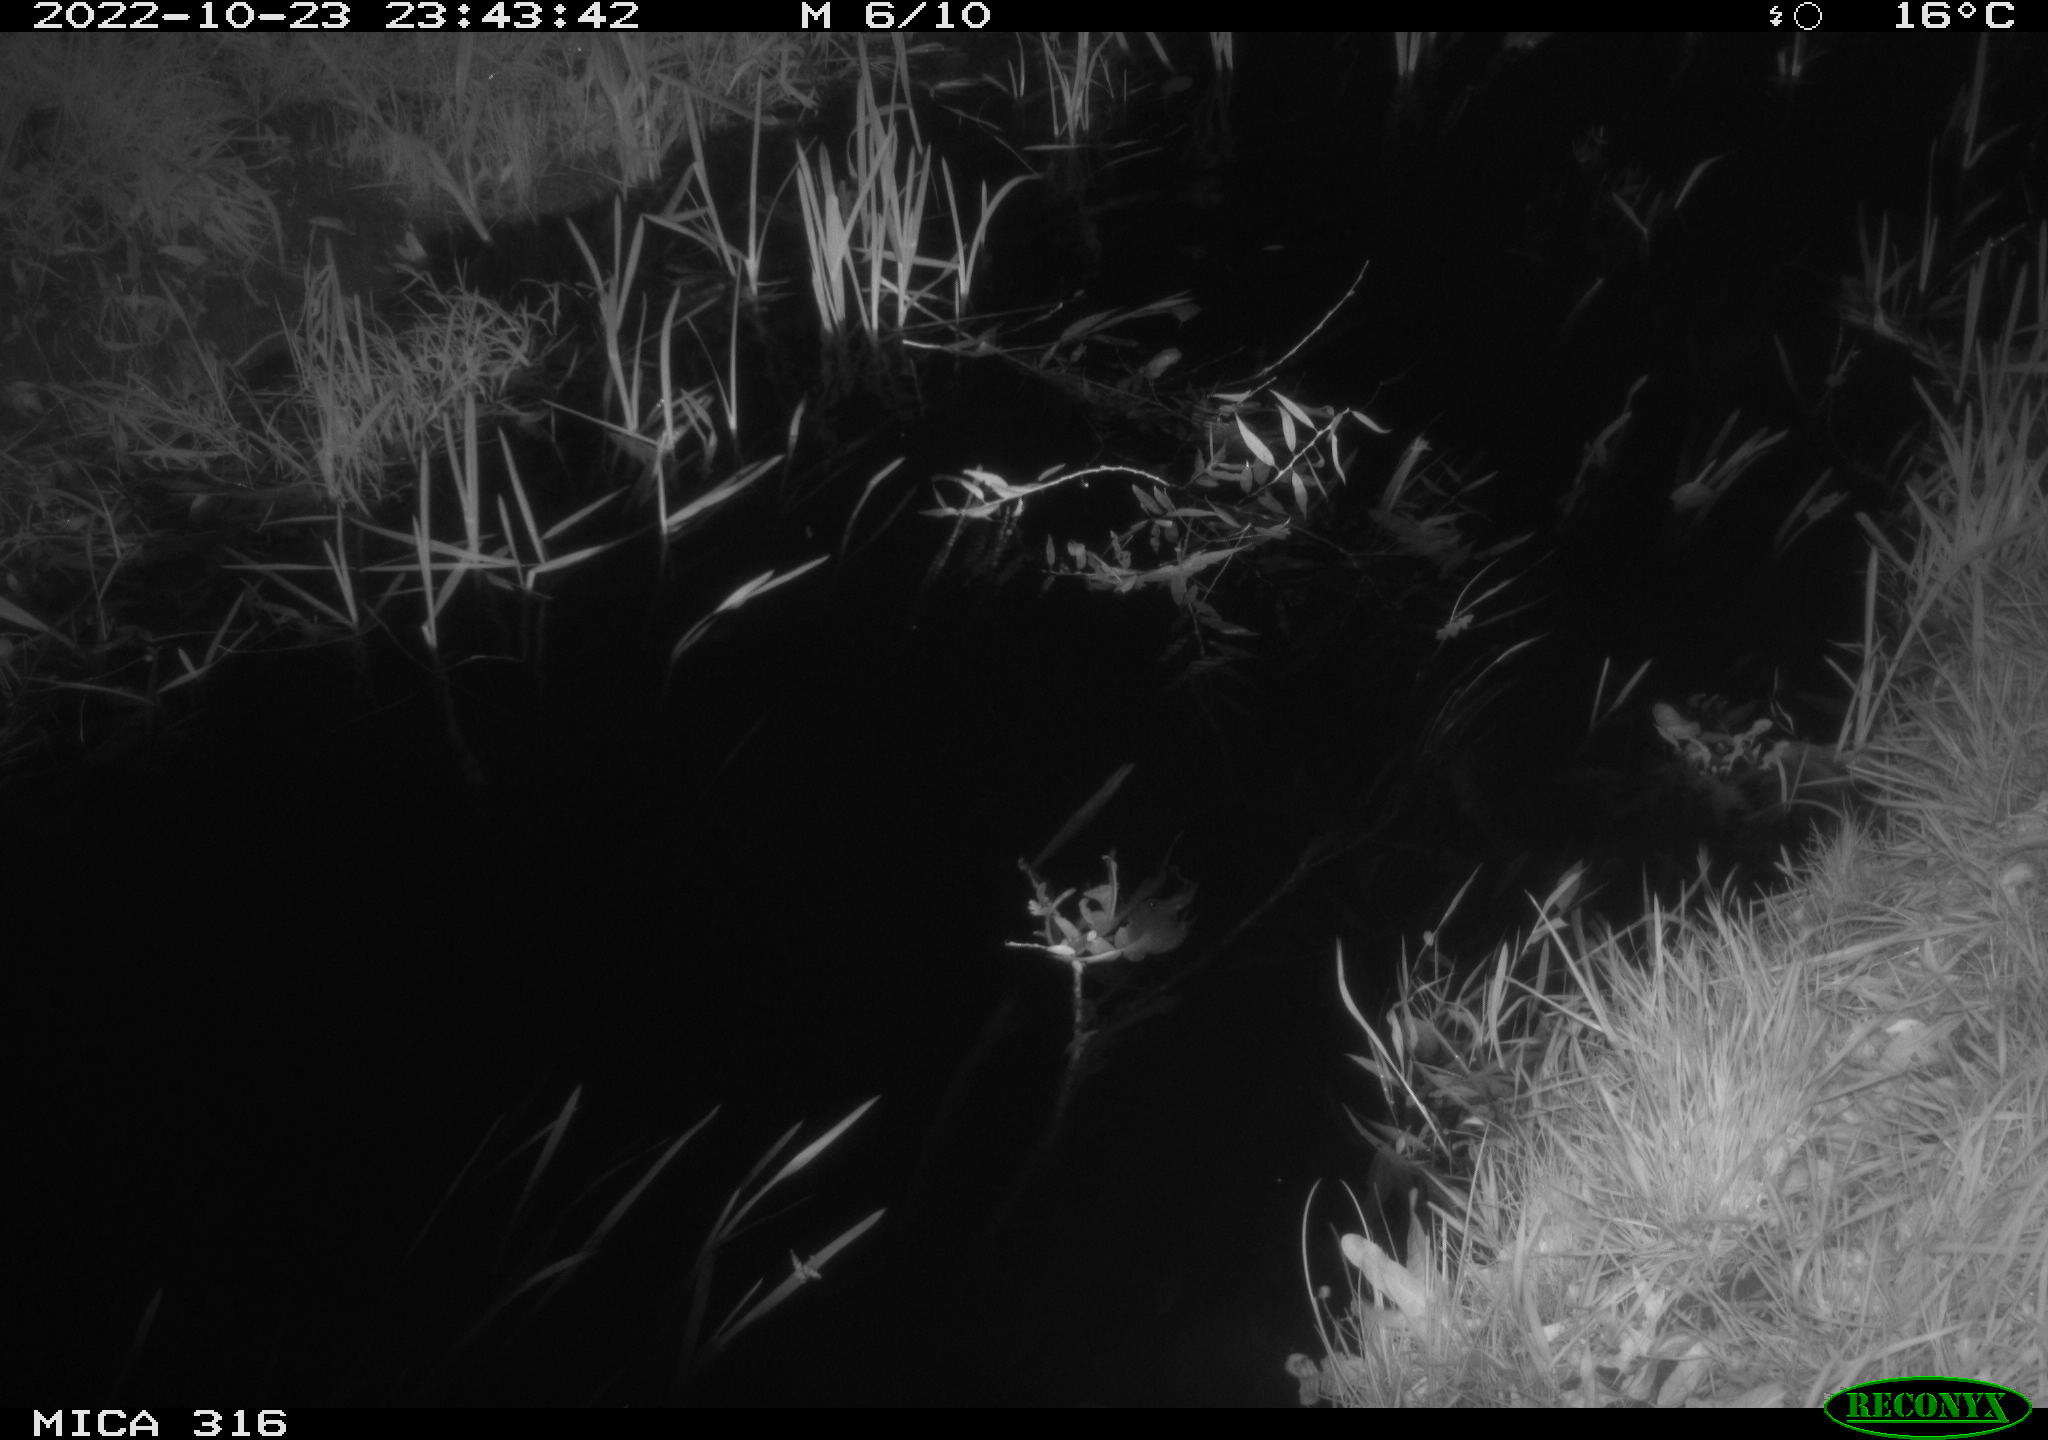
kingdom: Animalia
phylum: Chordata
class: Mammalia
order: Rodentia
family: Muridae
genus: Rattus
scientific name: Rattus norvegicus
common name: Brown rat
